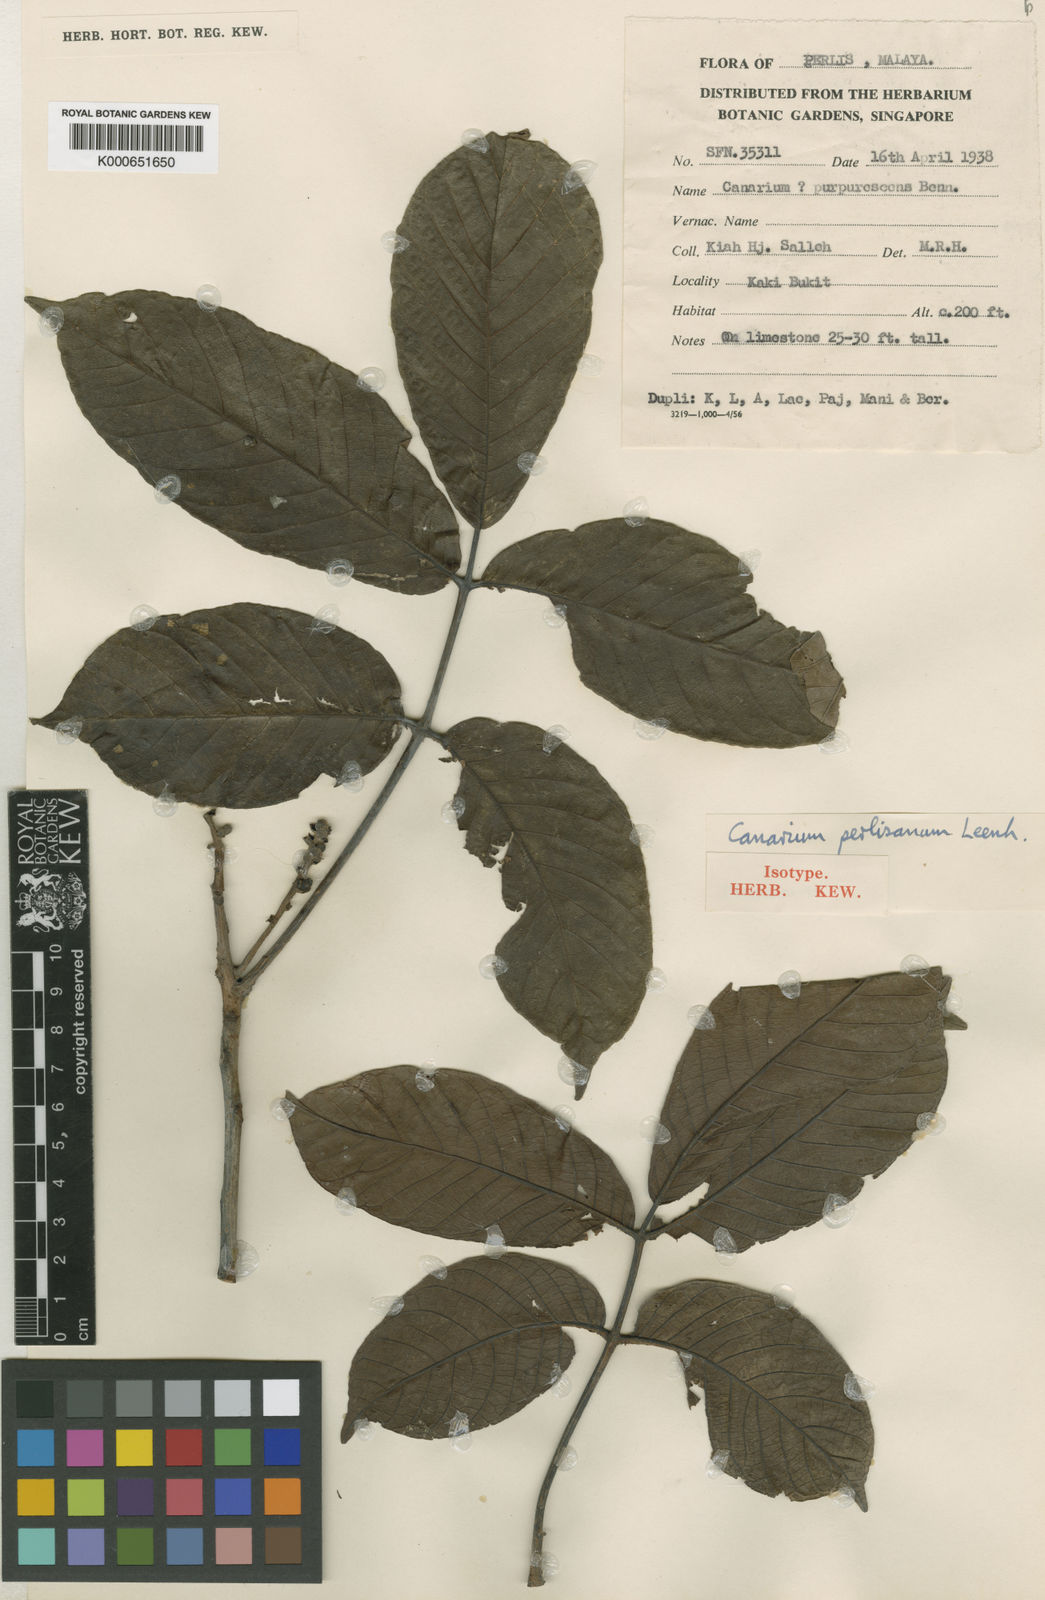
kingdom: Plantae
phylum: Tracheophyta
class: Magnoliopsida
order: Sapindales
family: Burseraceae
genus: Canarium
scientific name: Canarium perlisanum
